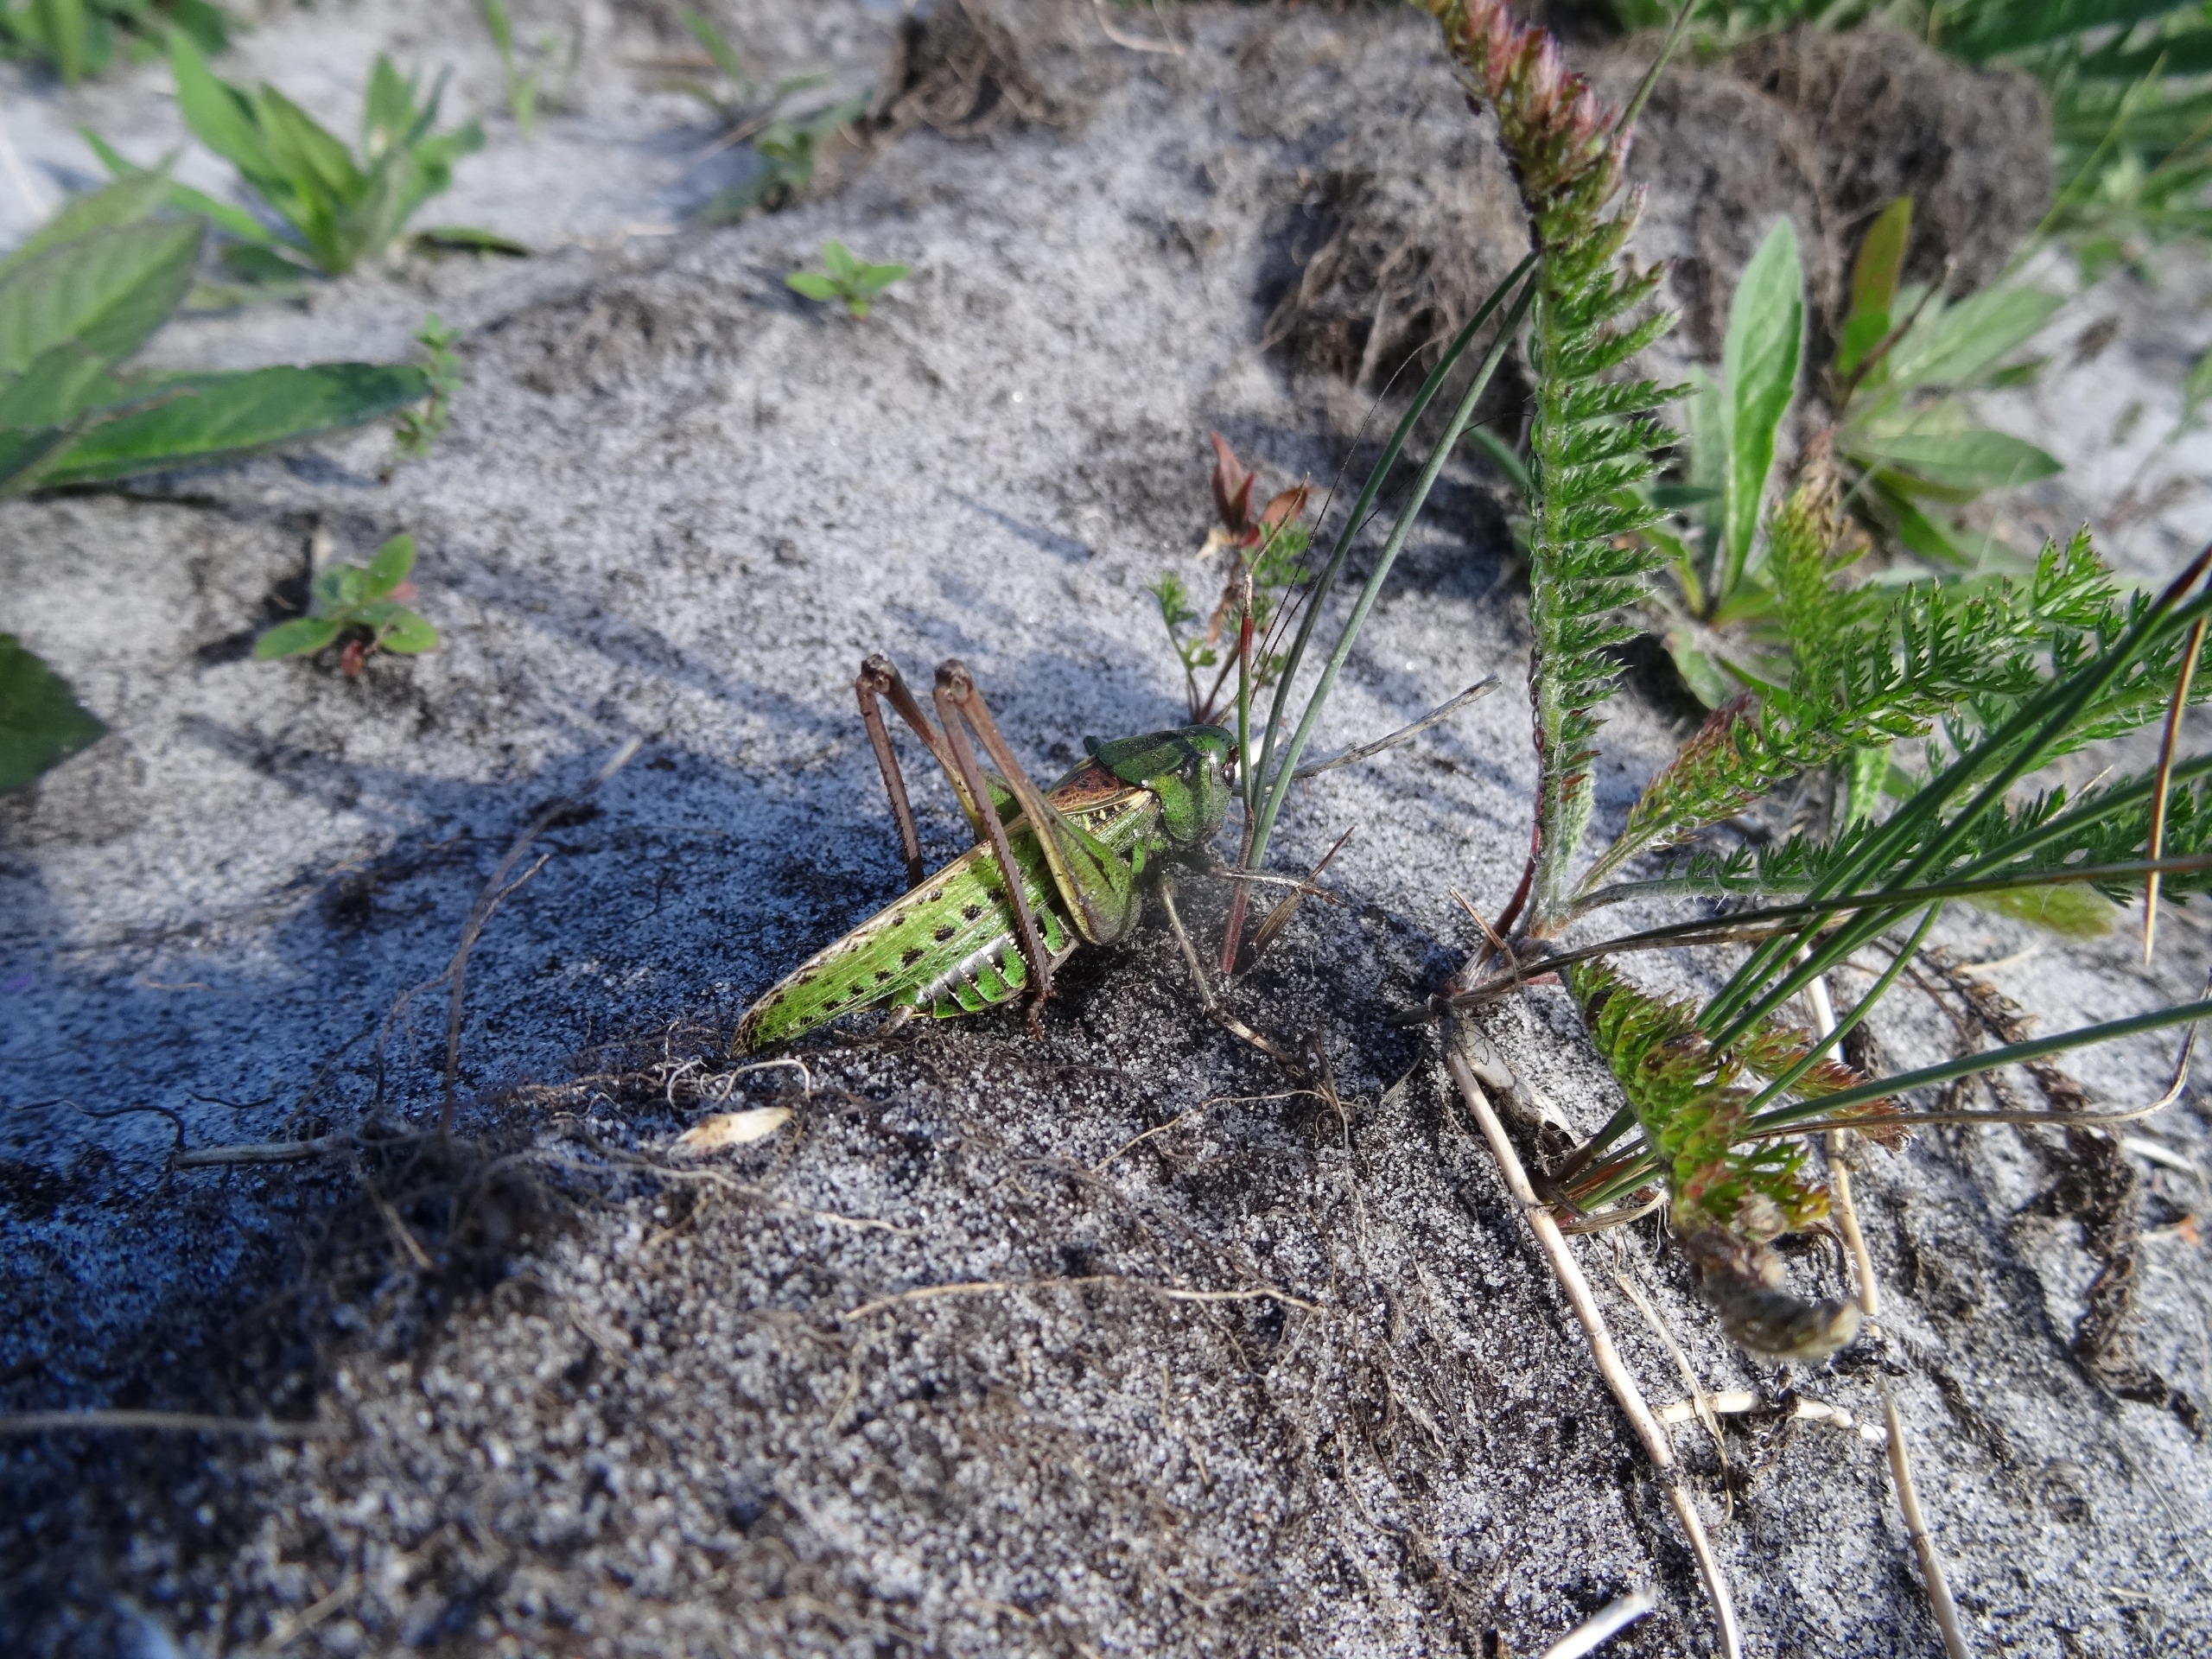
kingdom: Animalia
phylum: Arthropoda
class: Insecta
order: Orthoptera
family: Tettigoniidae
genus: Decticus
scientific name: Decticus verrucivorus
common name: Vortebider
